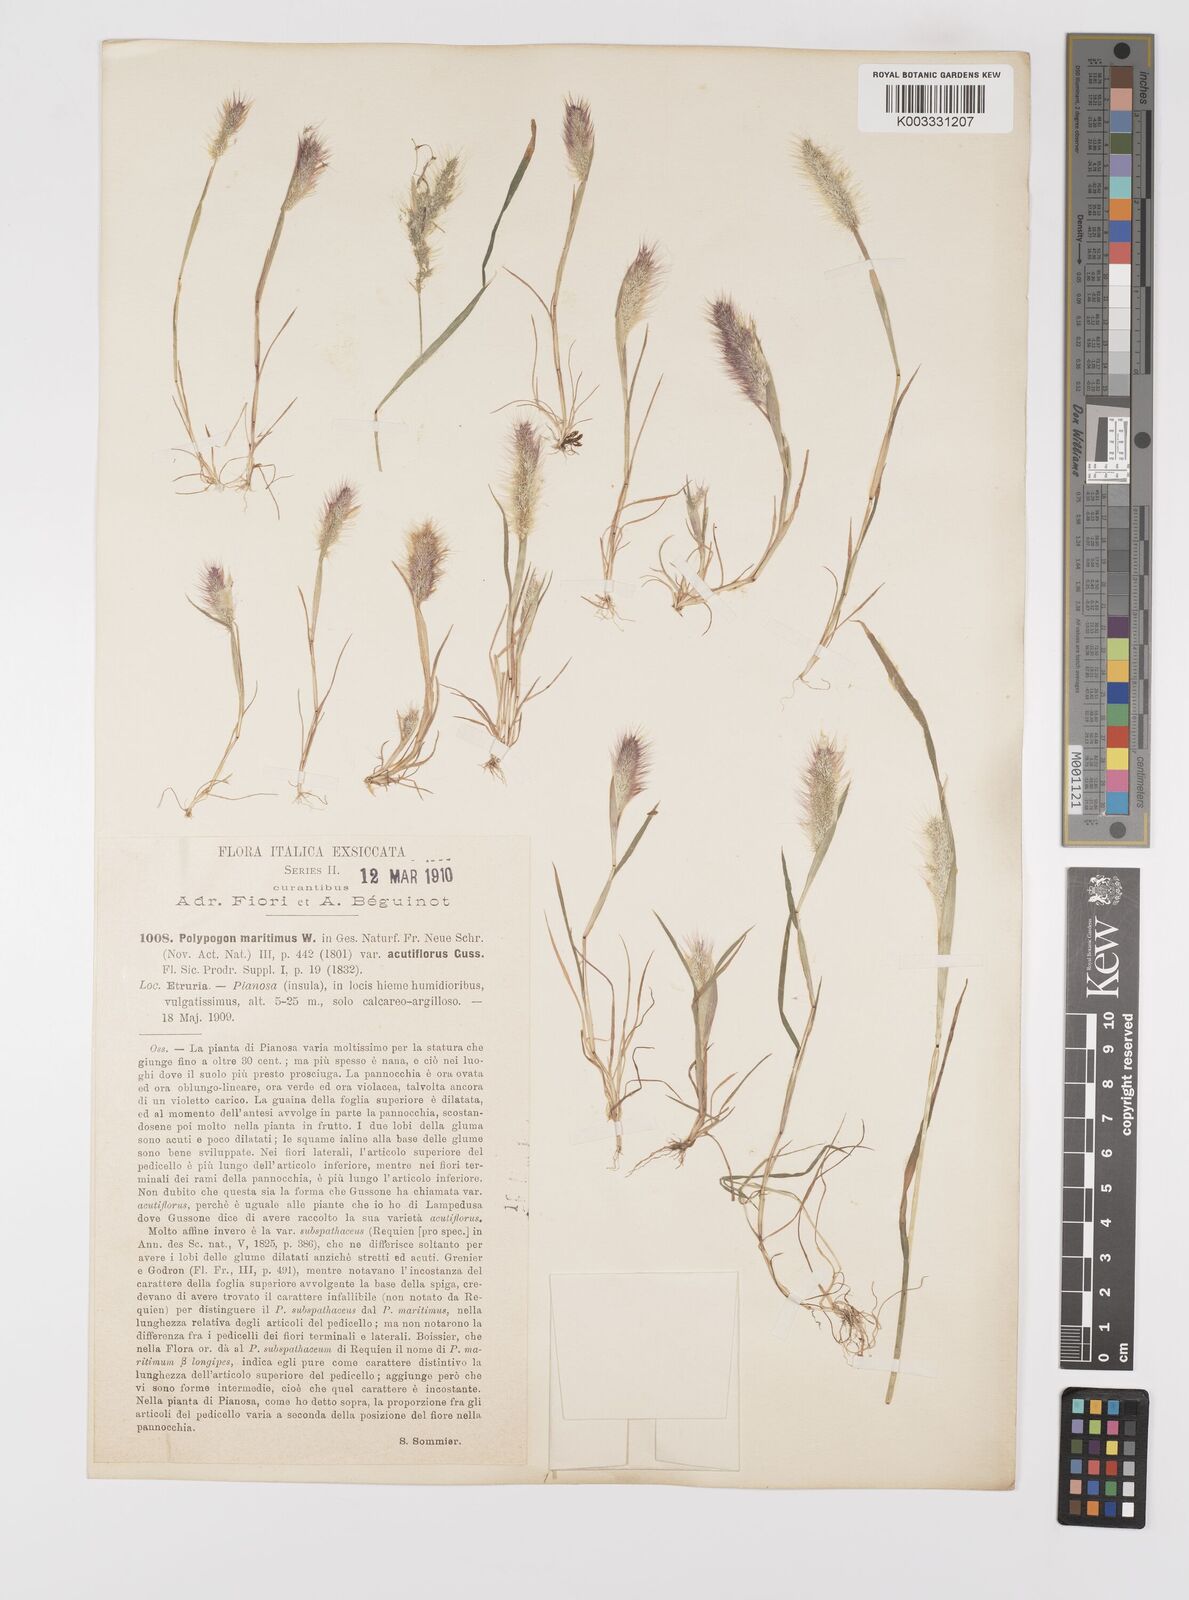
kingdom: Plantae
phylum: Tracheophyta
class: Liliopsida
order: Poales
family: Poaceae
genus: Polypogon
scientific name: Polypogon maritimus
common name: Mediterranean rabbitsfoot grass
